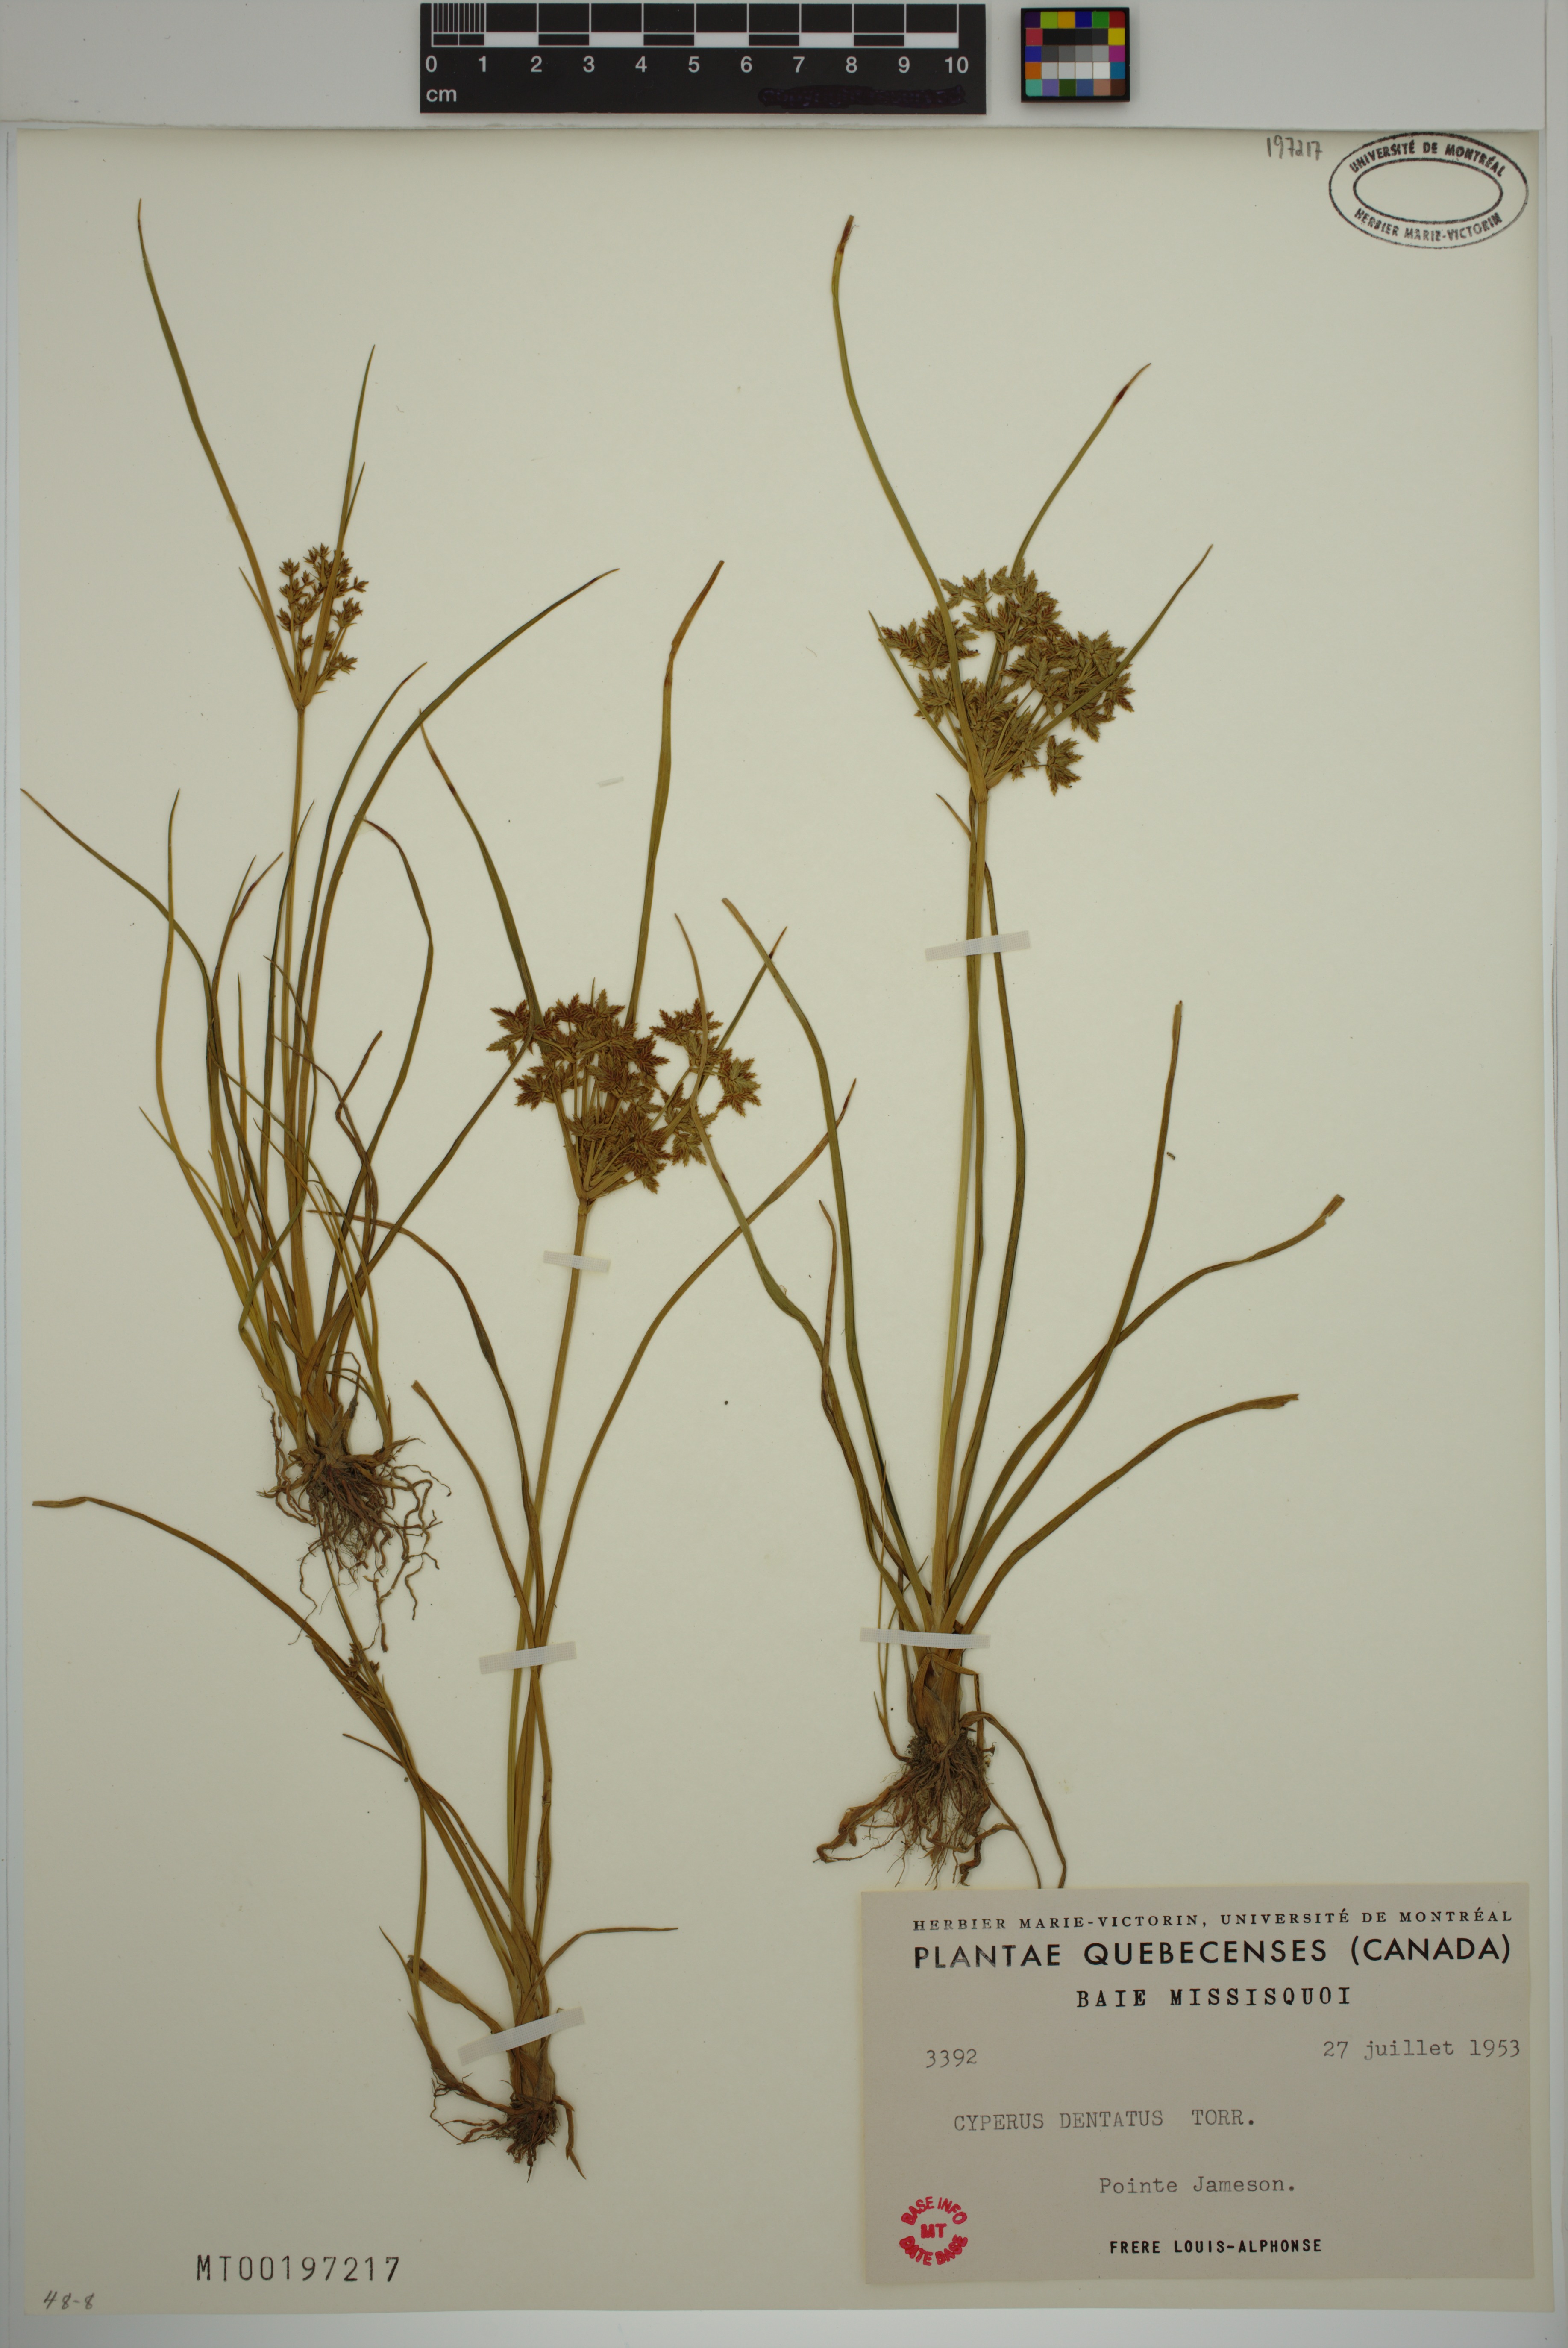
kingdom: Plantae
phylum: Tracheophyta
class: Liliopsida
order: Poales
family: Cyperaceae
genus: Cyperus
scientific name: Cyperus dentatus
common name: Dentate umbrella sedge
